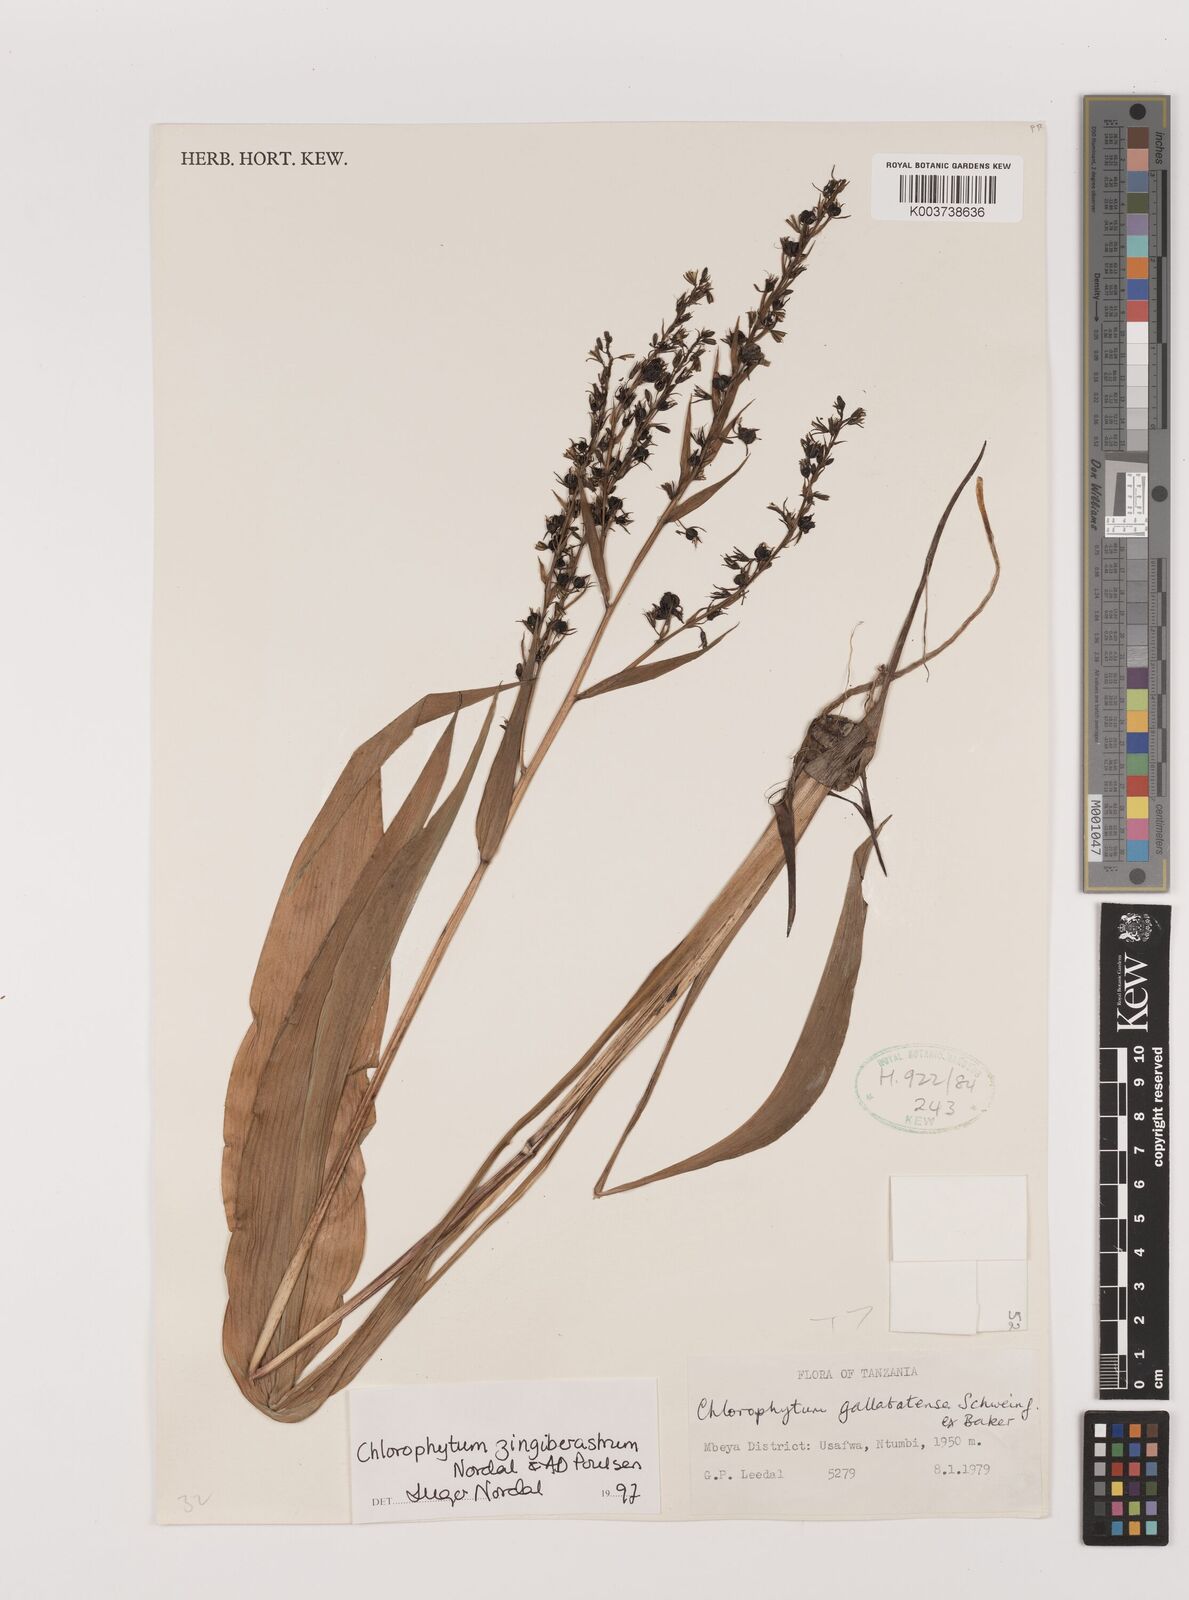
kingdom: Plantae
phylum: Tracheophyta
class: Liliopsida
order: Asparagales
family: Asparagaceae
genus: Chlorophytum
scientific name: Chlorophytum zingiberastrum
